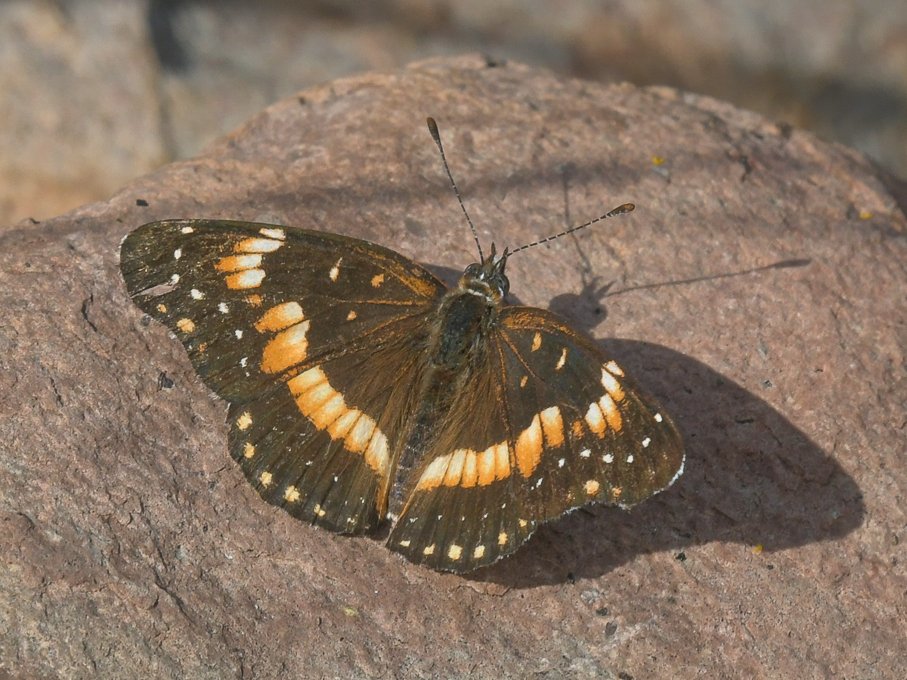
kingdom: Animalia
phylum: Arthropoda
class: Insecta
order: Lepidoptera
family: Nymphalidae
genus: Chlosyne
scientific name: Chlosyne californica
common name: California Patch
